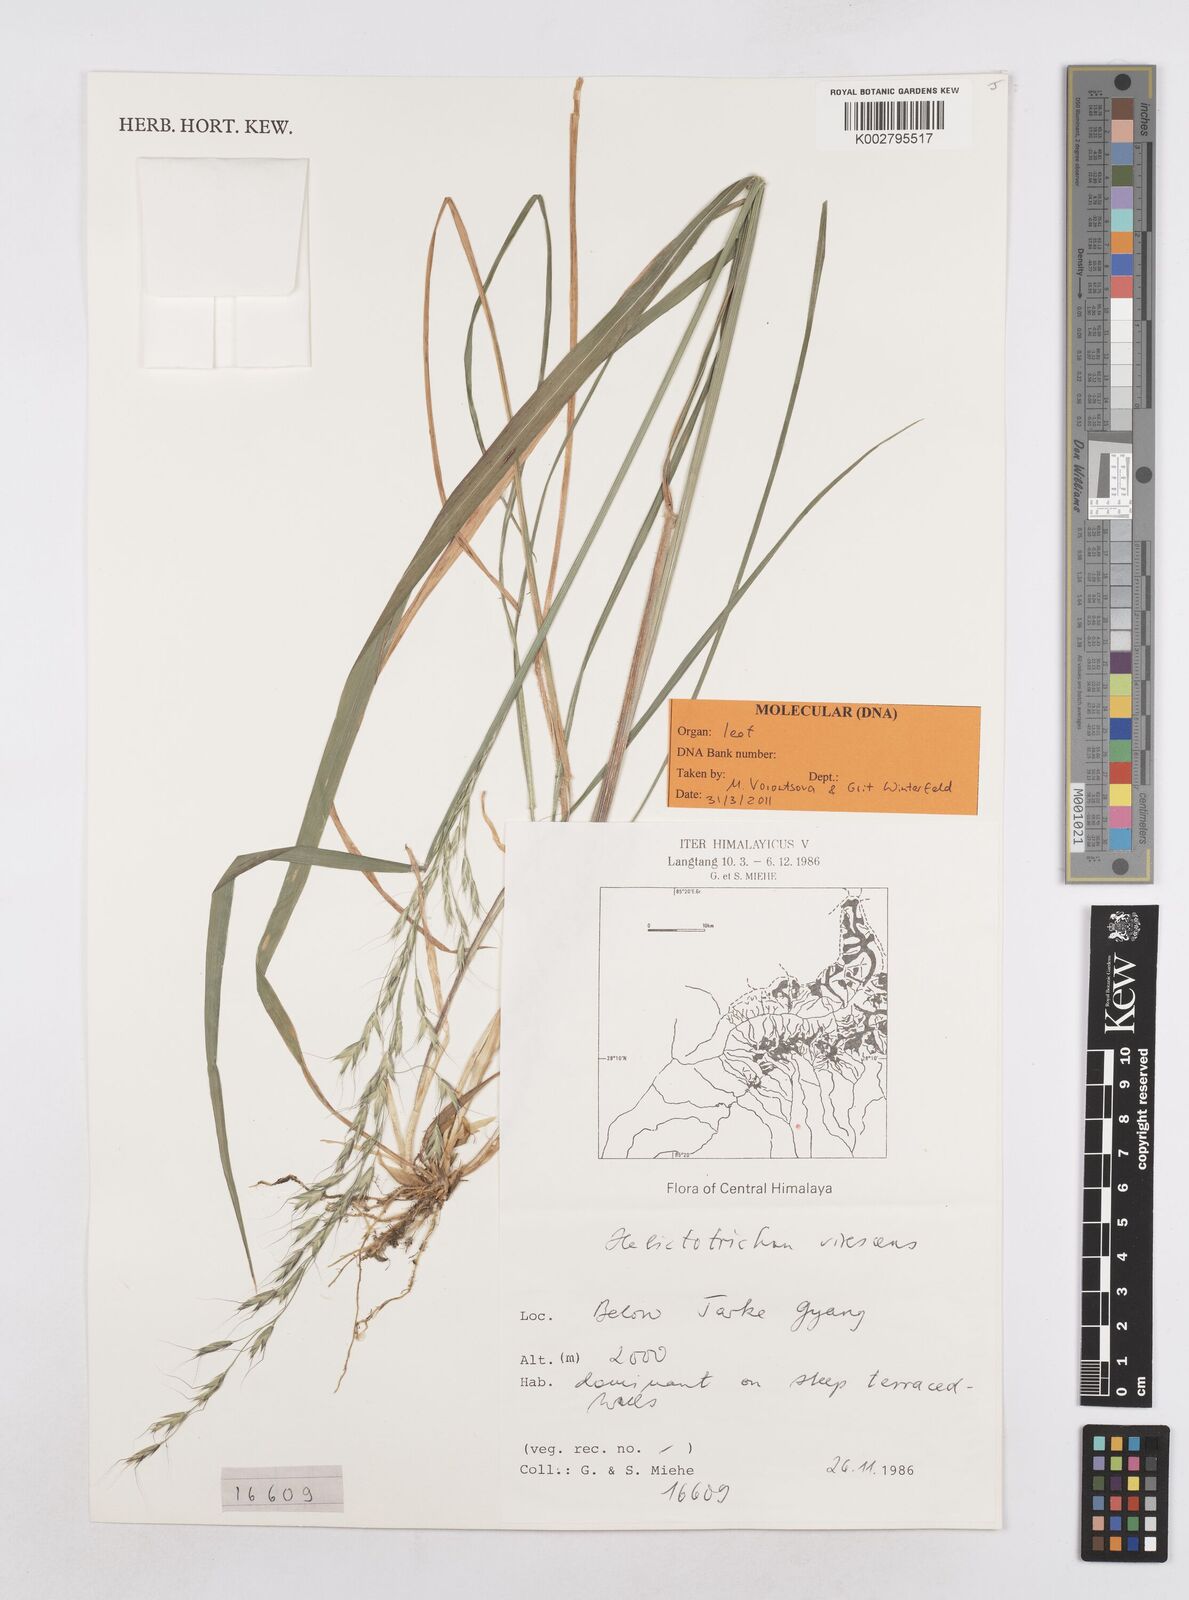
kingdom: Plantae
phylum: Tracheophyta
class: Liliopsida
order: Poales
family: Poaceae
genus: Trisetopsis
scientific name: Trisetopsis junghuhnii
